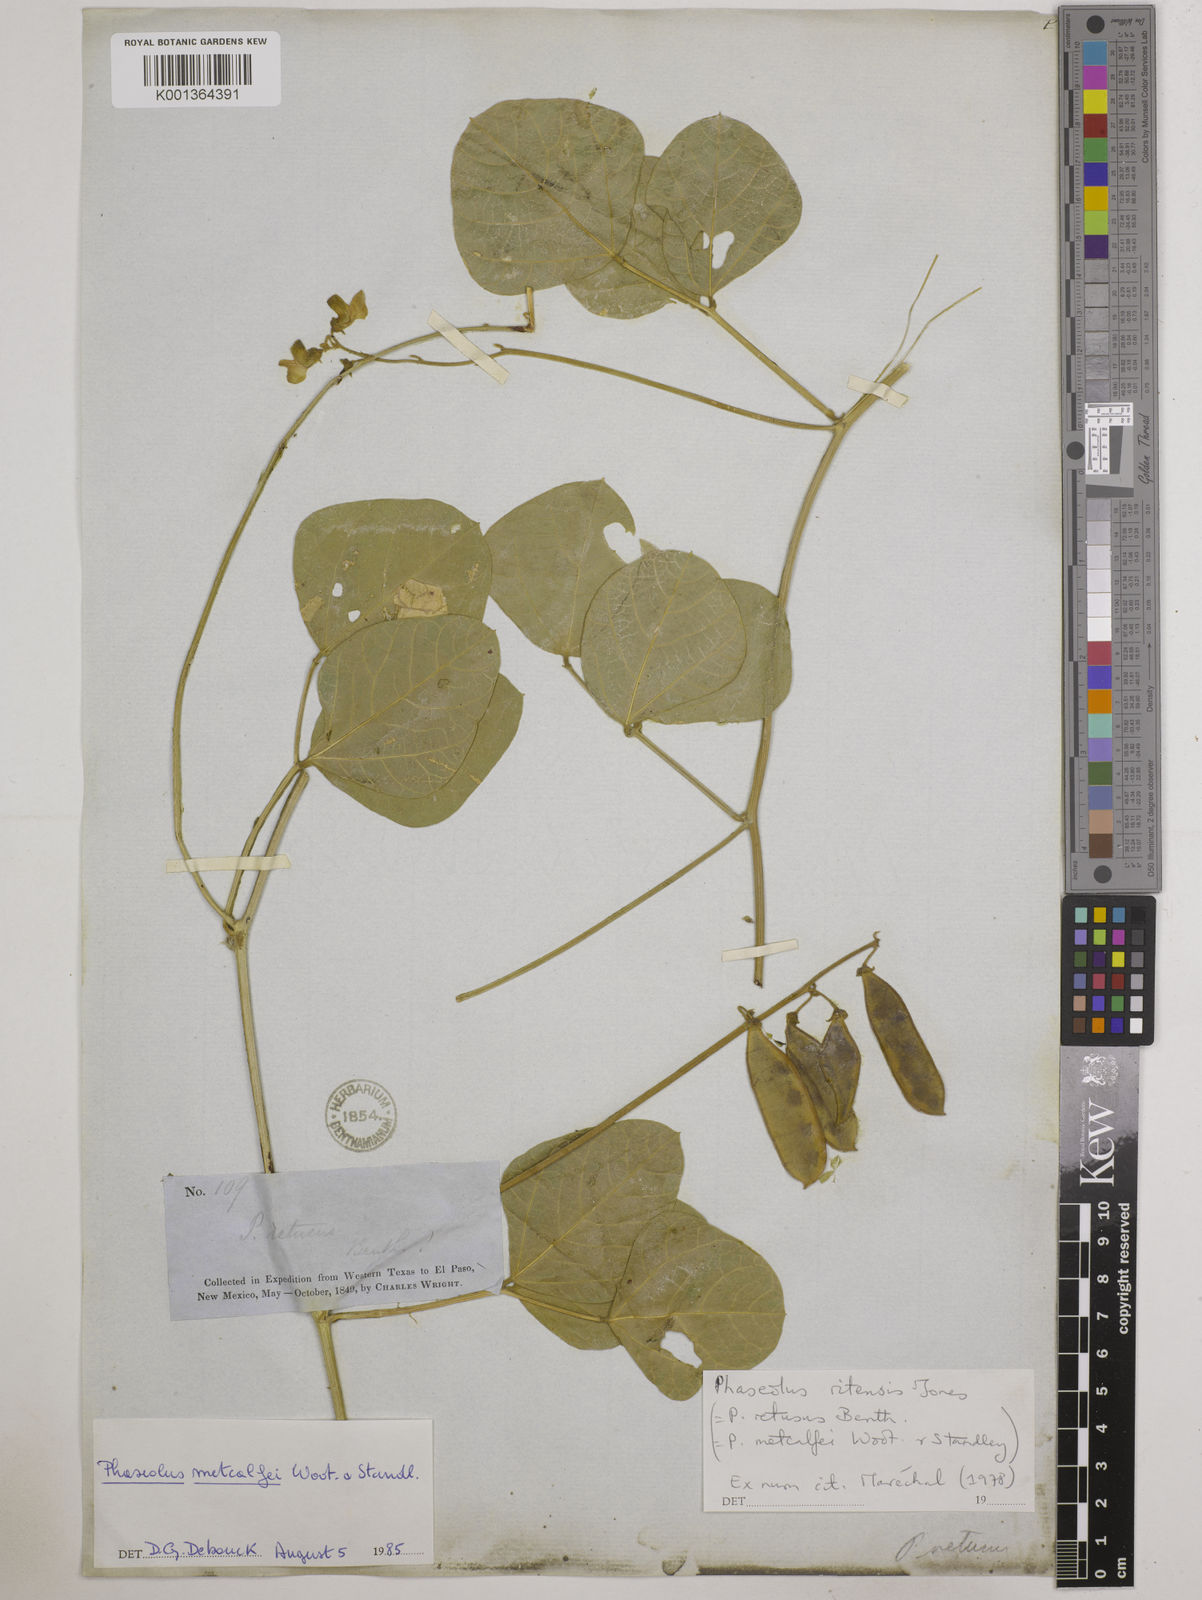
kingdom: Plantae
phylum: Tracheophyta
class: Magnoliopsida
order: Fabales
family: Fabaceae
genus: Phaseolus
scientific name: Phaseolus maculatus
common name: Metcalfe bean
